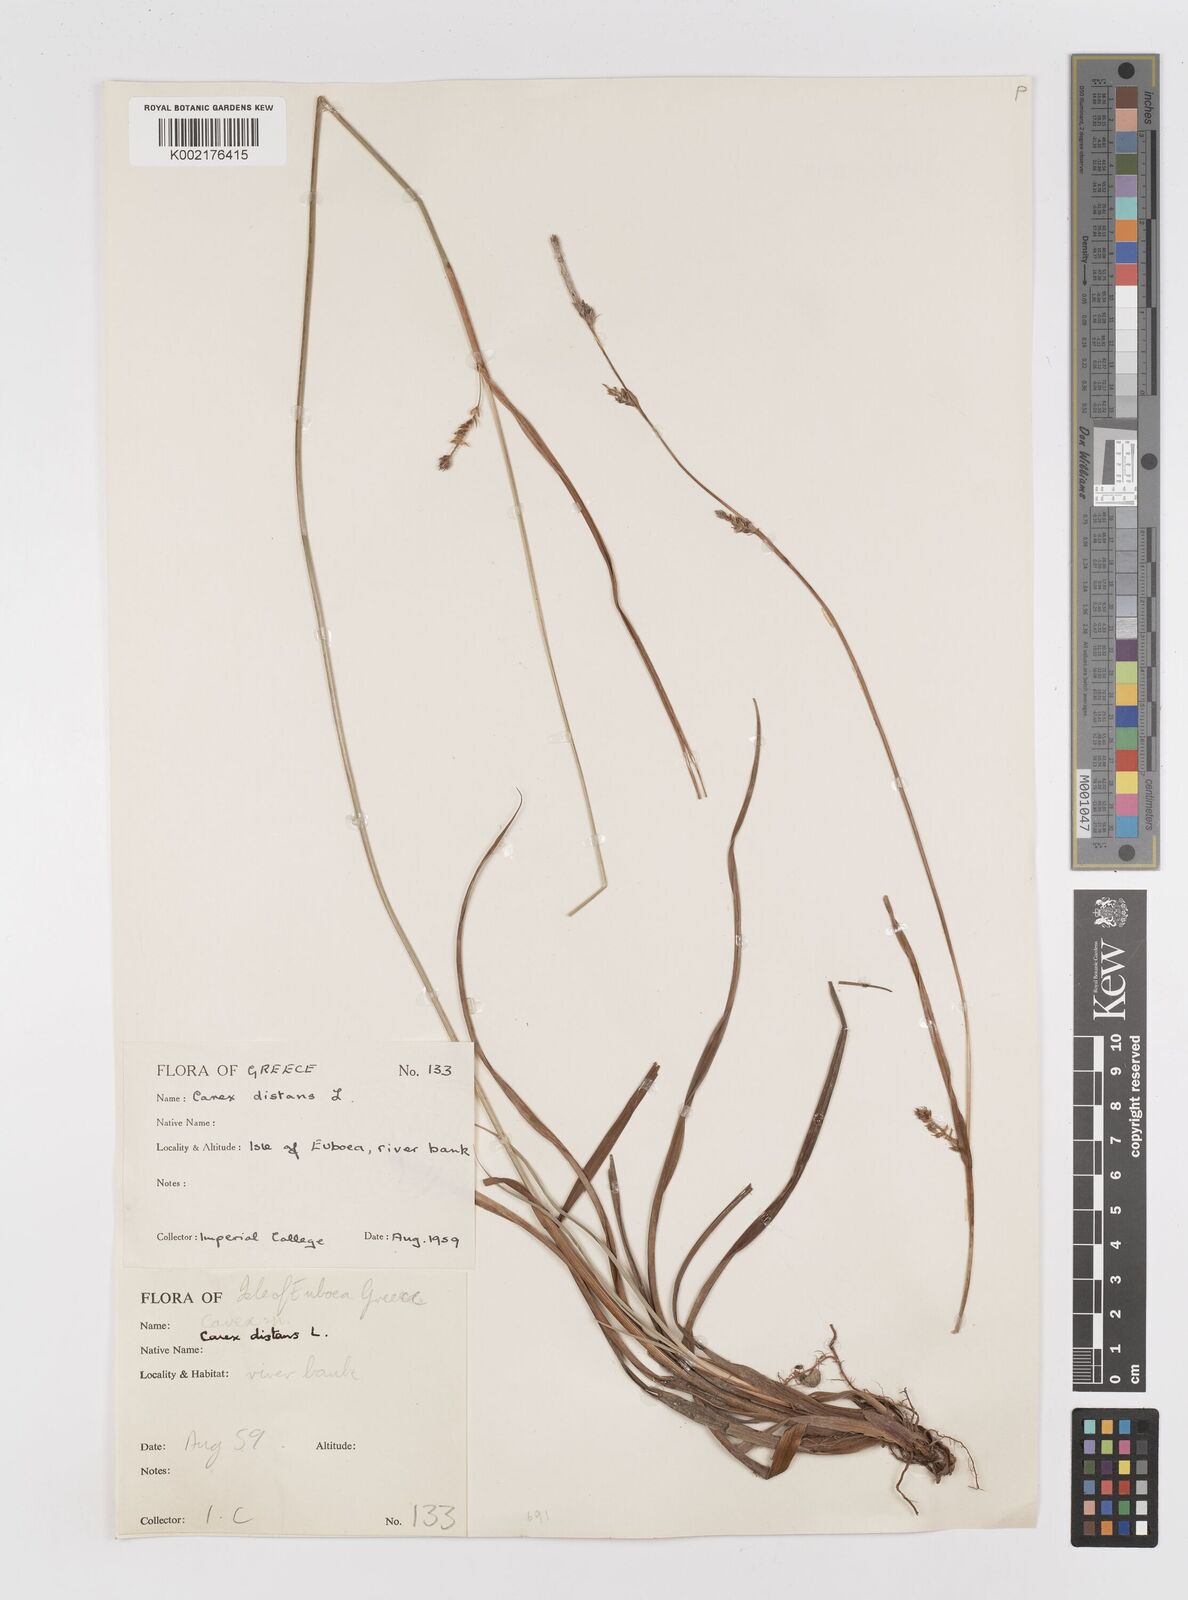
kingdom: Plantae
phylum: Tracheophyta
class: Liliopsida
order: Poales
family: Cyperaceae
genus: Carex
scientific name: Carex distans
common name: Distant sedge
